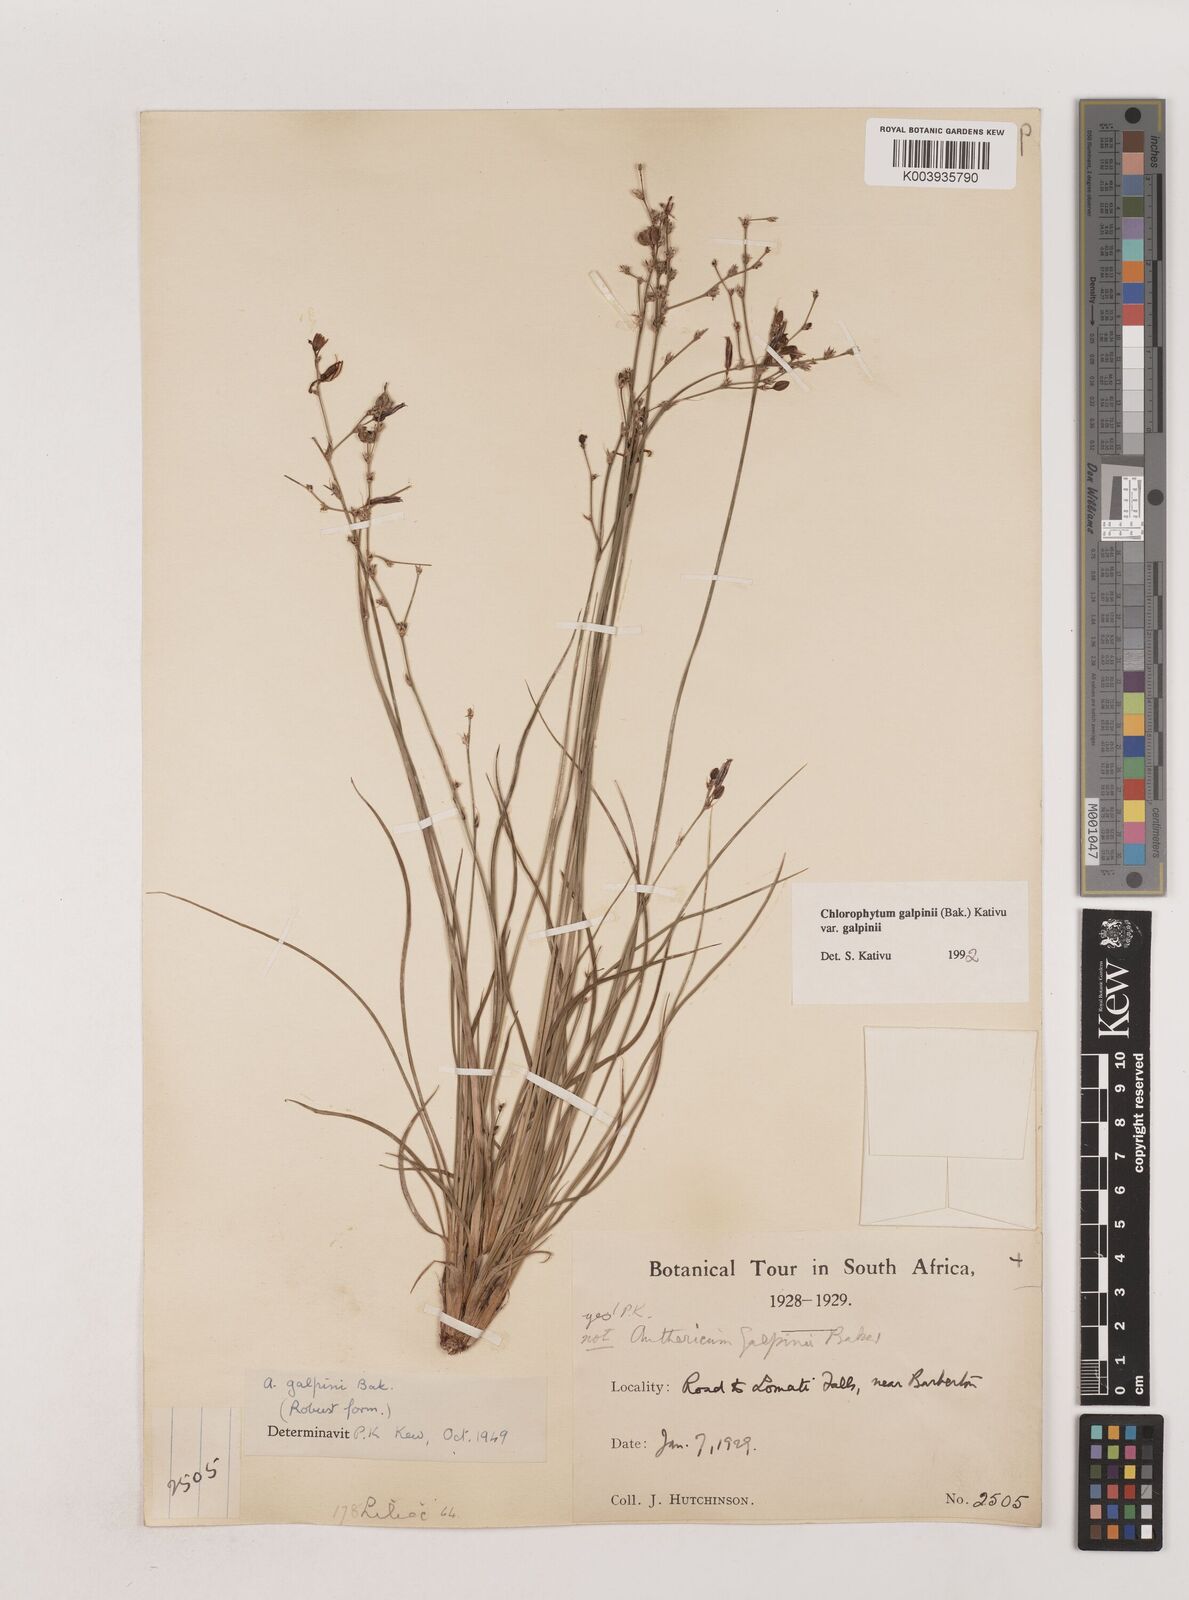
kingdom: Plantae
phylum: Tracheophyta
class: Liliopsida
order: Asparagales
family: Asparagaceae
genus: Chlorophytum
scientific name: Chlorophytum galpinii
